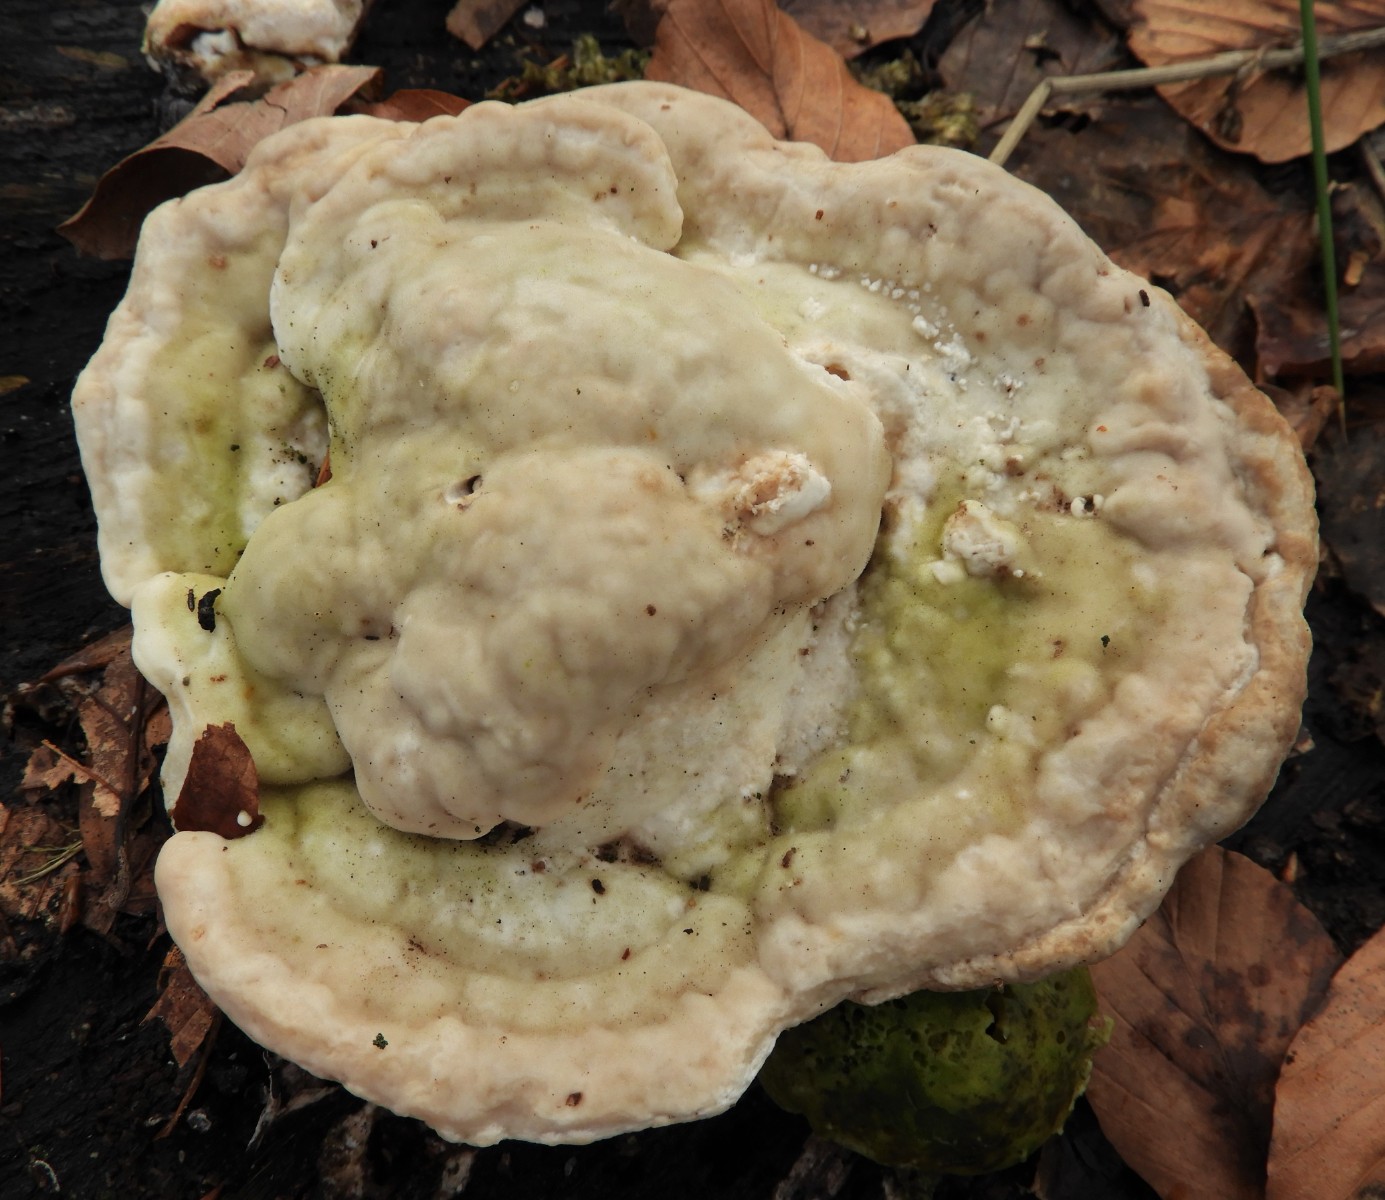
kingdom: Fungi
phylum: Basidiomycota
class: Agaricomycetes
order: Polyporales
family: Polyporaceae
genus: Trametes
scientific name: Trametes gibbosa
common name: puklet læderporesvamp
